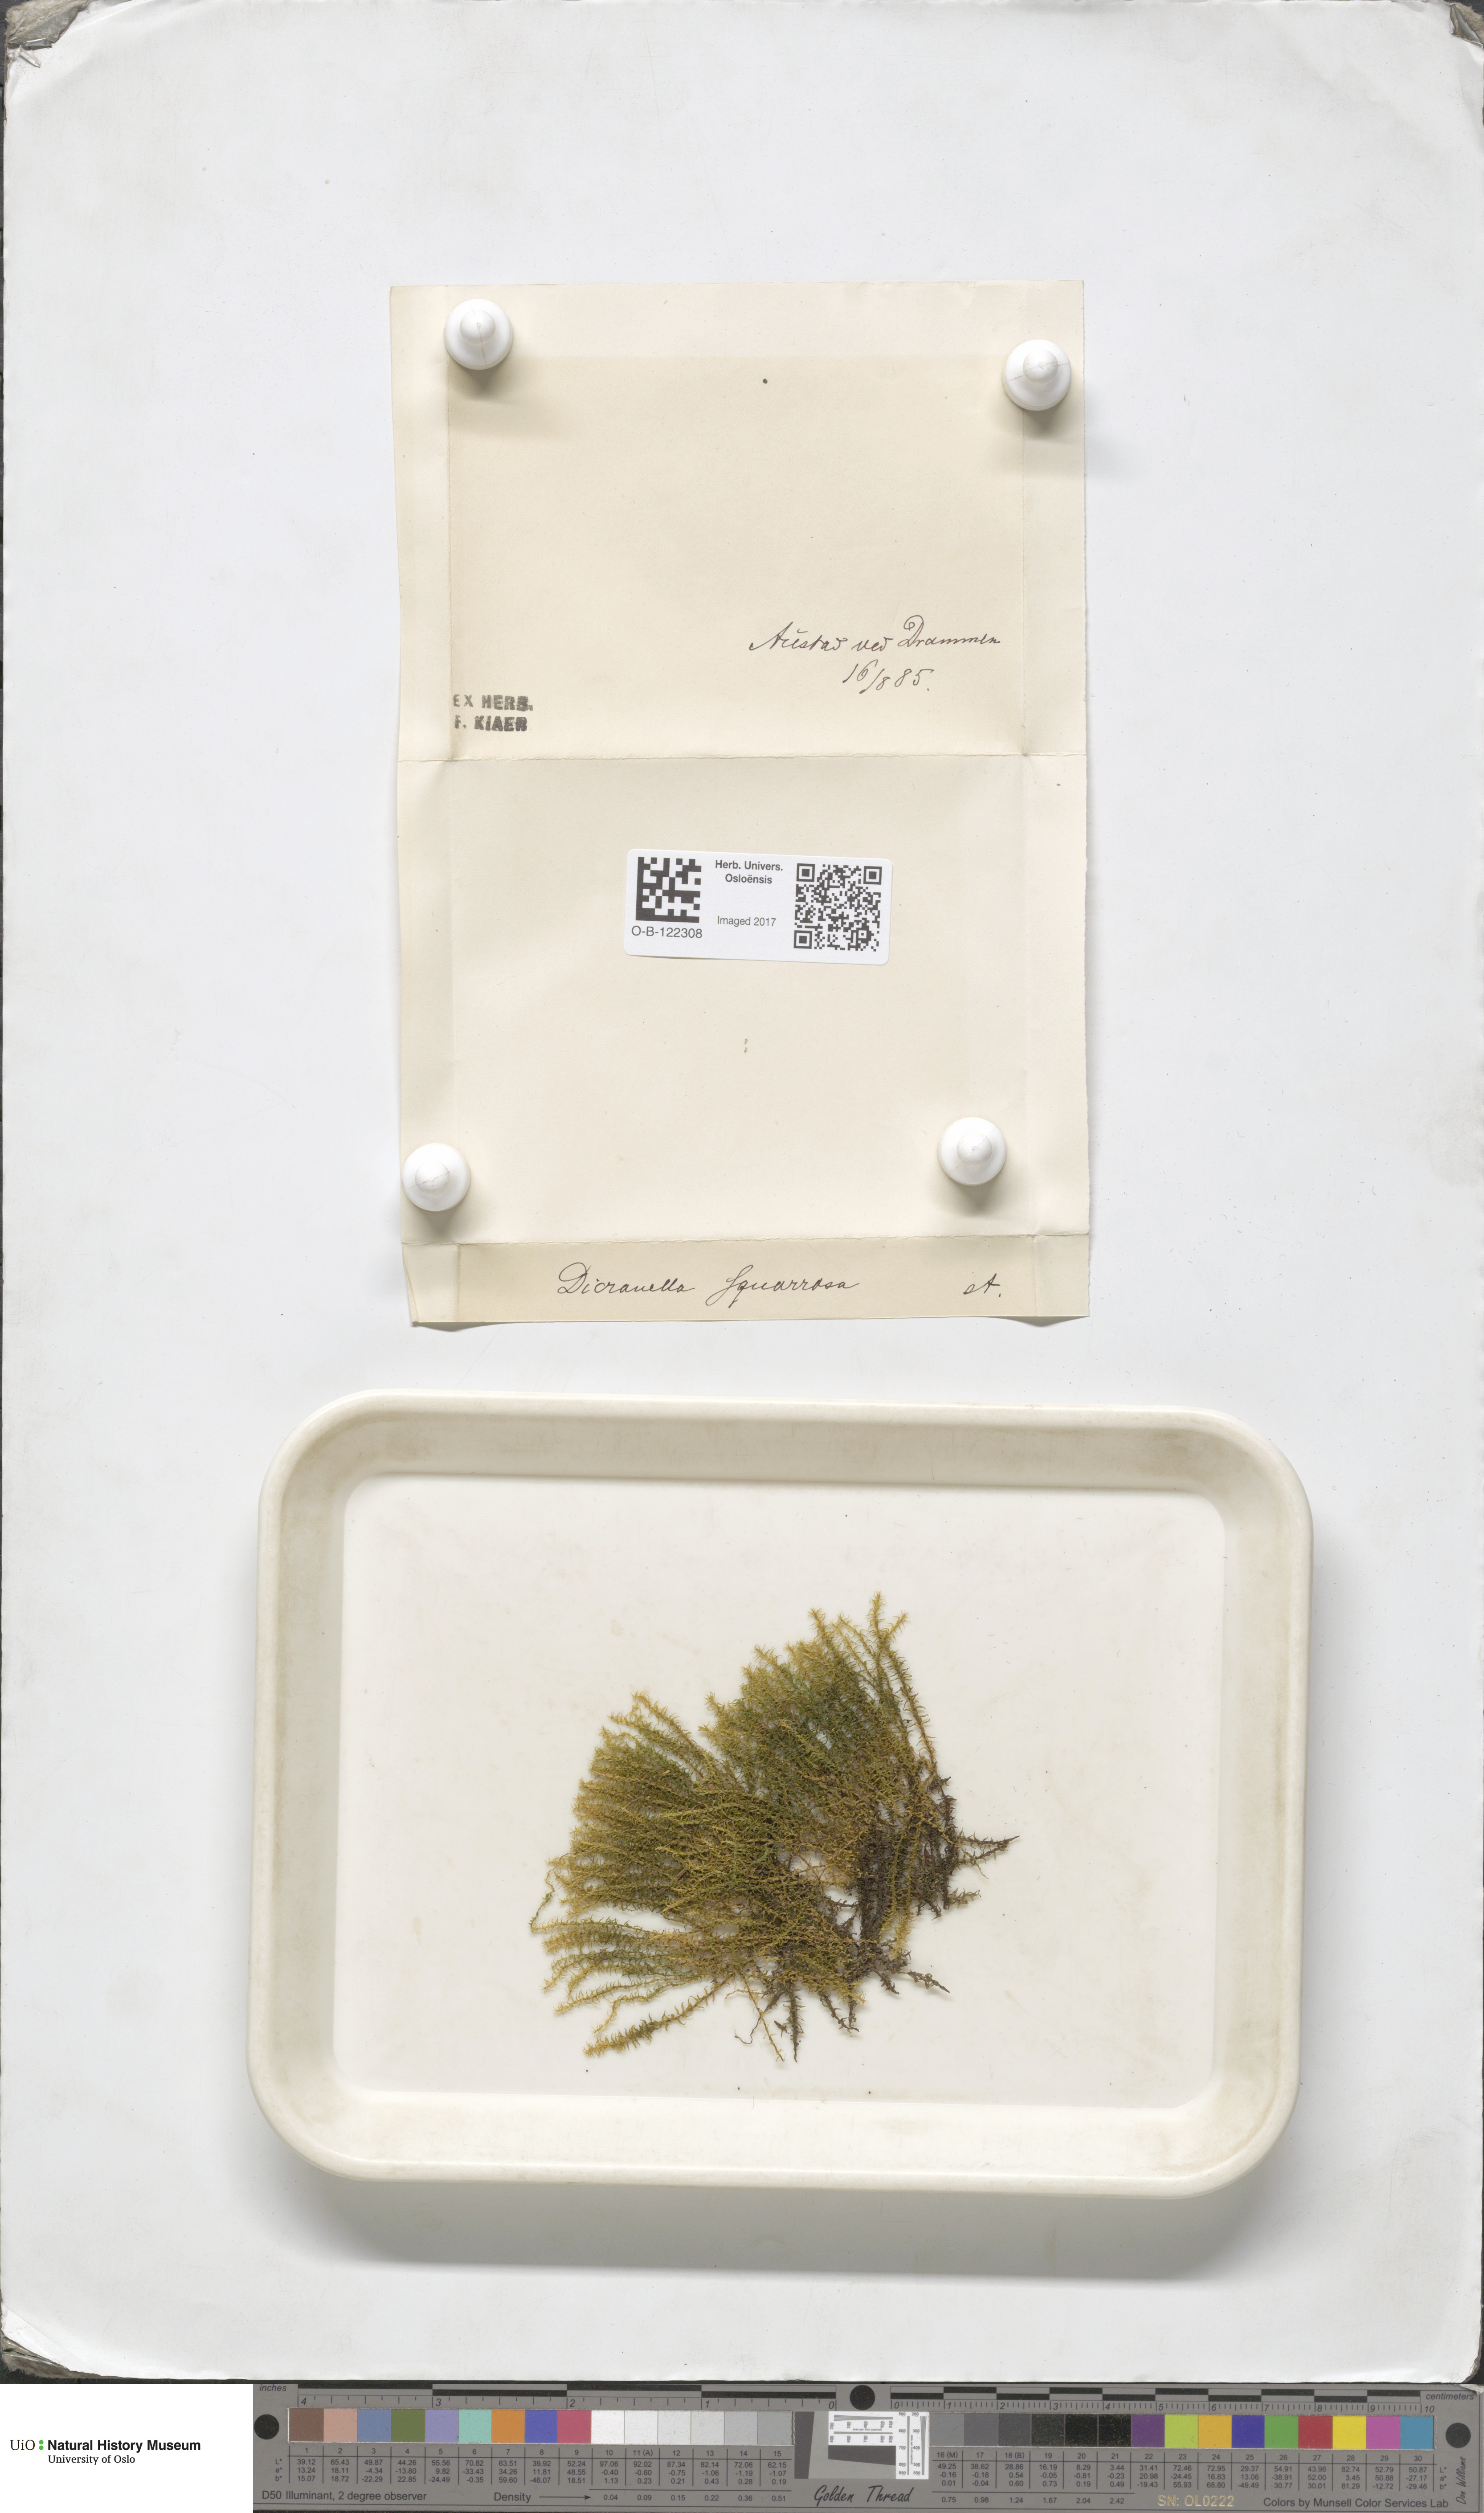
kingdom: Plantae
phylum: Bryophyta
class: Bryopsida
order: Dicranales
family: Aongstroemiaceae
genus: Diobelonella
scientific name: Diobelonella palustris
